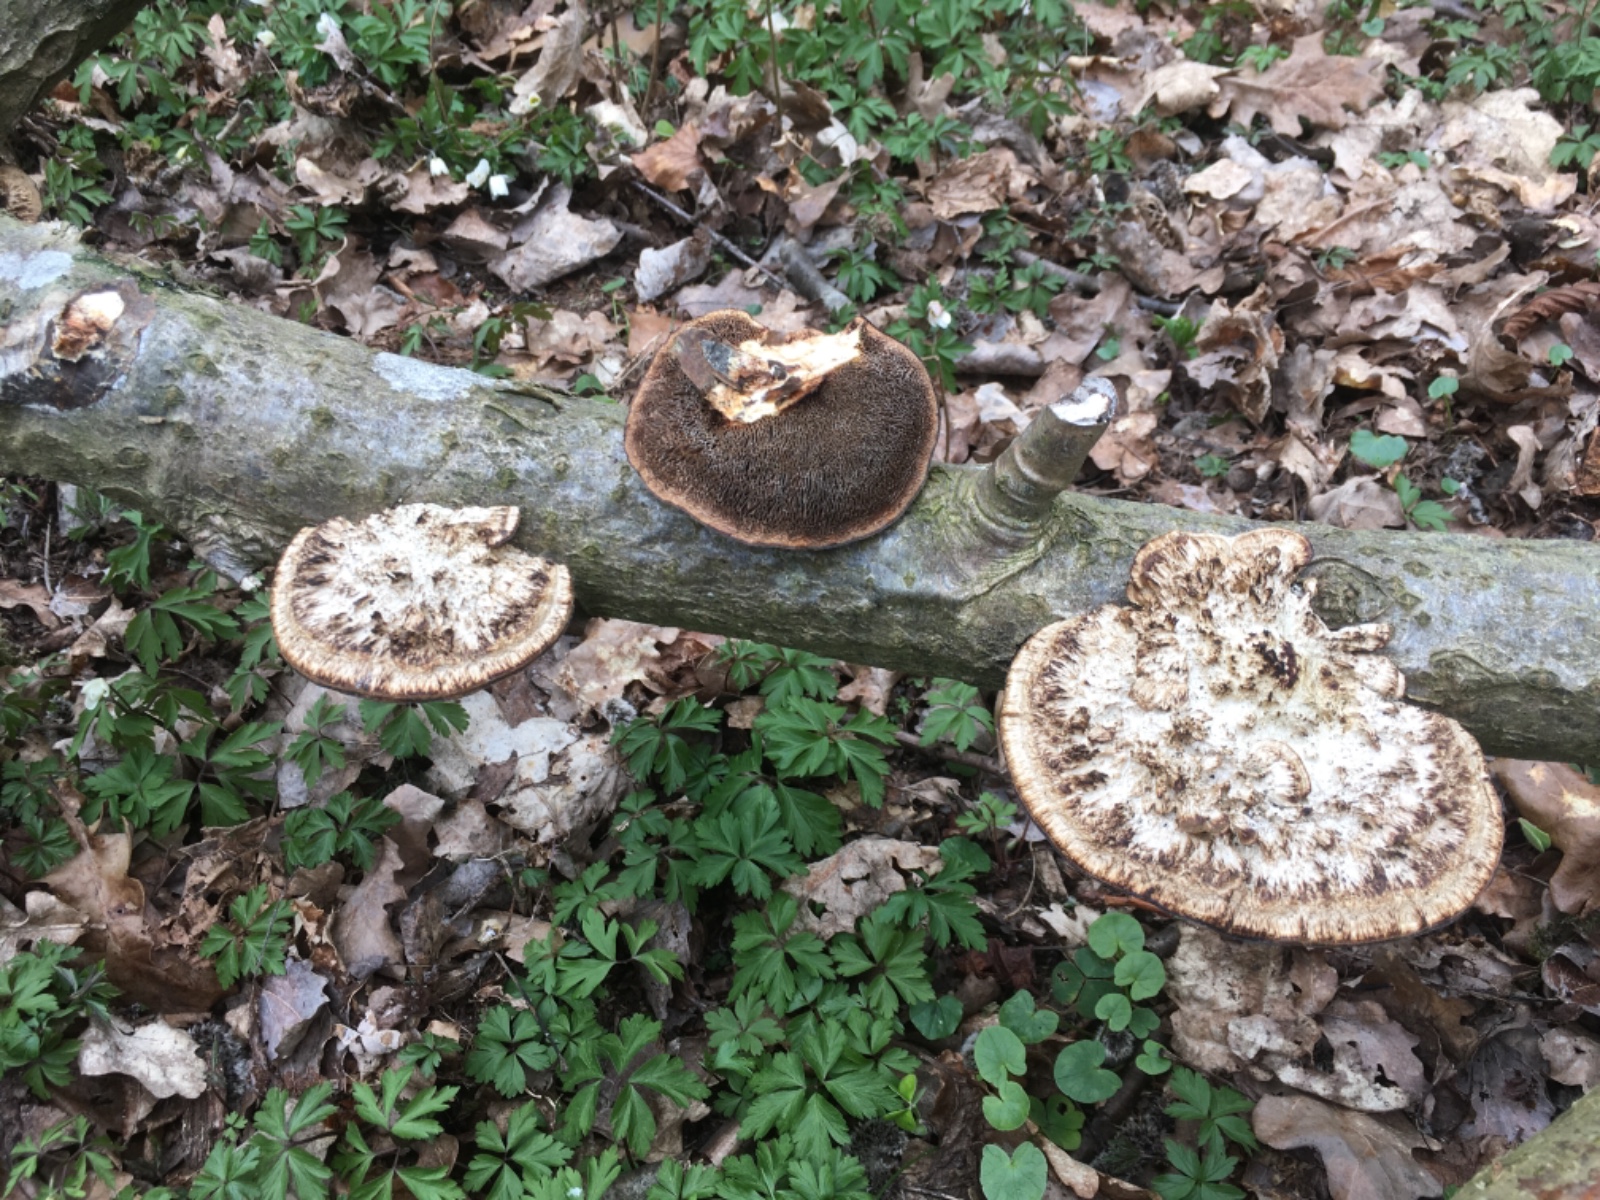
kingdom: Fungi
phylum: Basidiomycota
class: Agaricomycetes
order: Polyporales
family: Polyporaceae
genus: Daedaleopsis
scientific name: Daedaleopsis confragosa
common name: rødmende læderporesvamp
